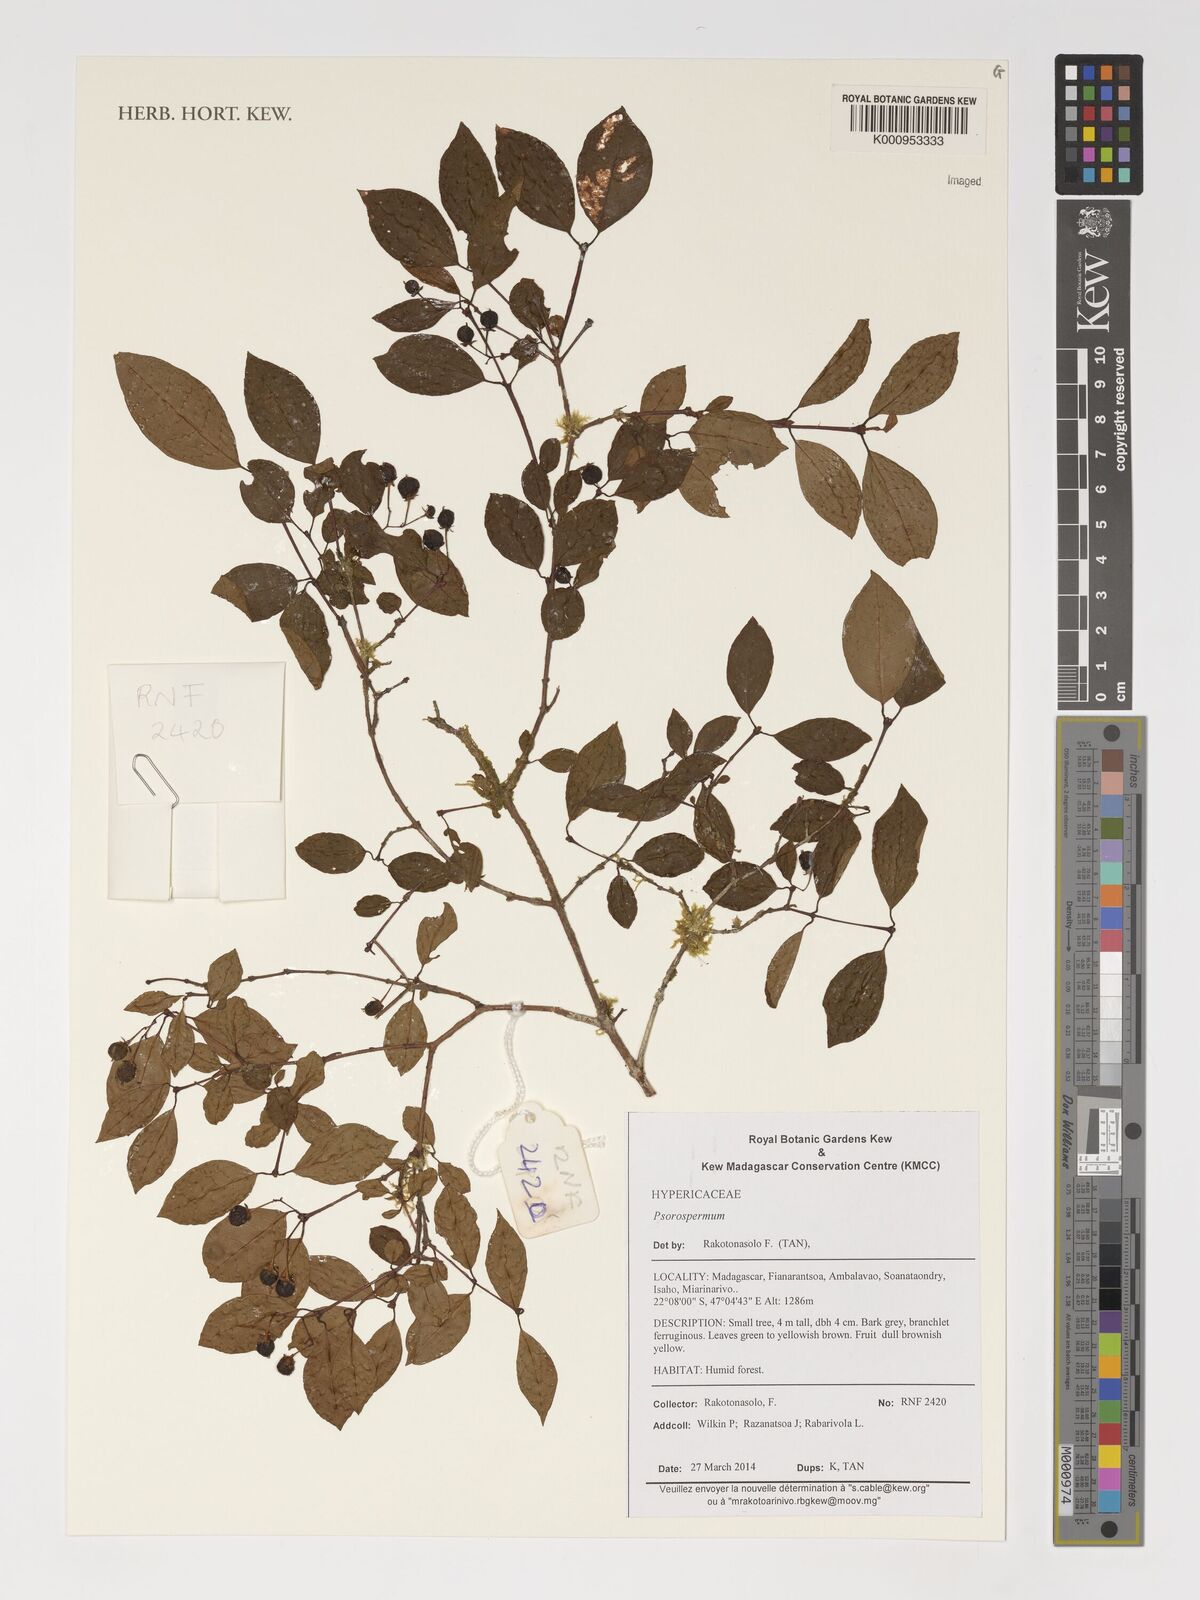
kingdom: Plantae
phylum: Tracheophyta
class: Magnoliopsida
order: Malpighiales
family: Hypericaceae
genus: Psorospermum
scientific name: Psorospermum
